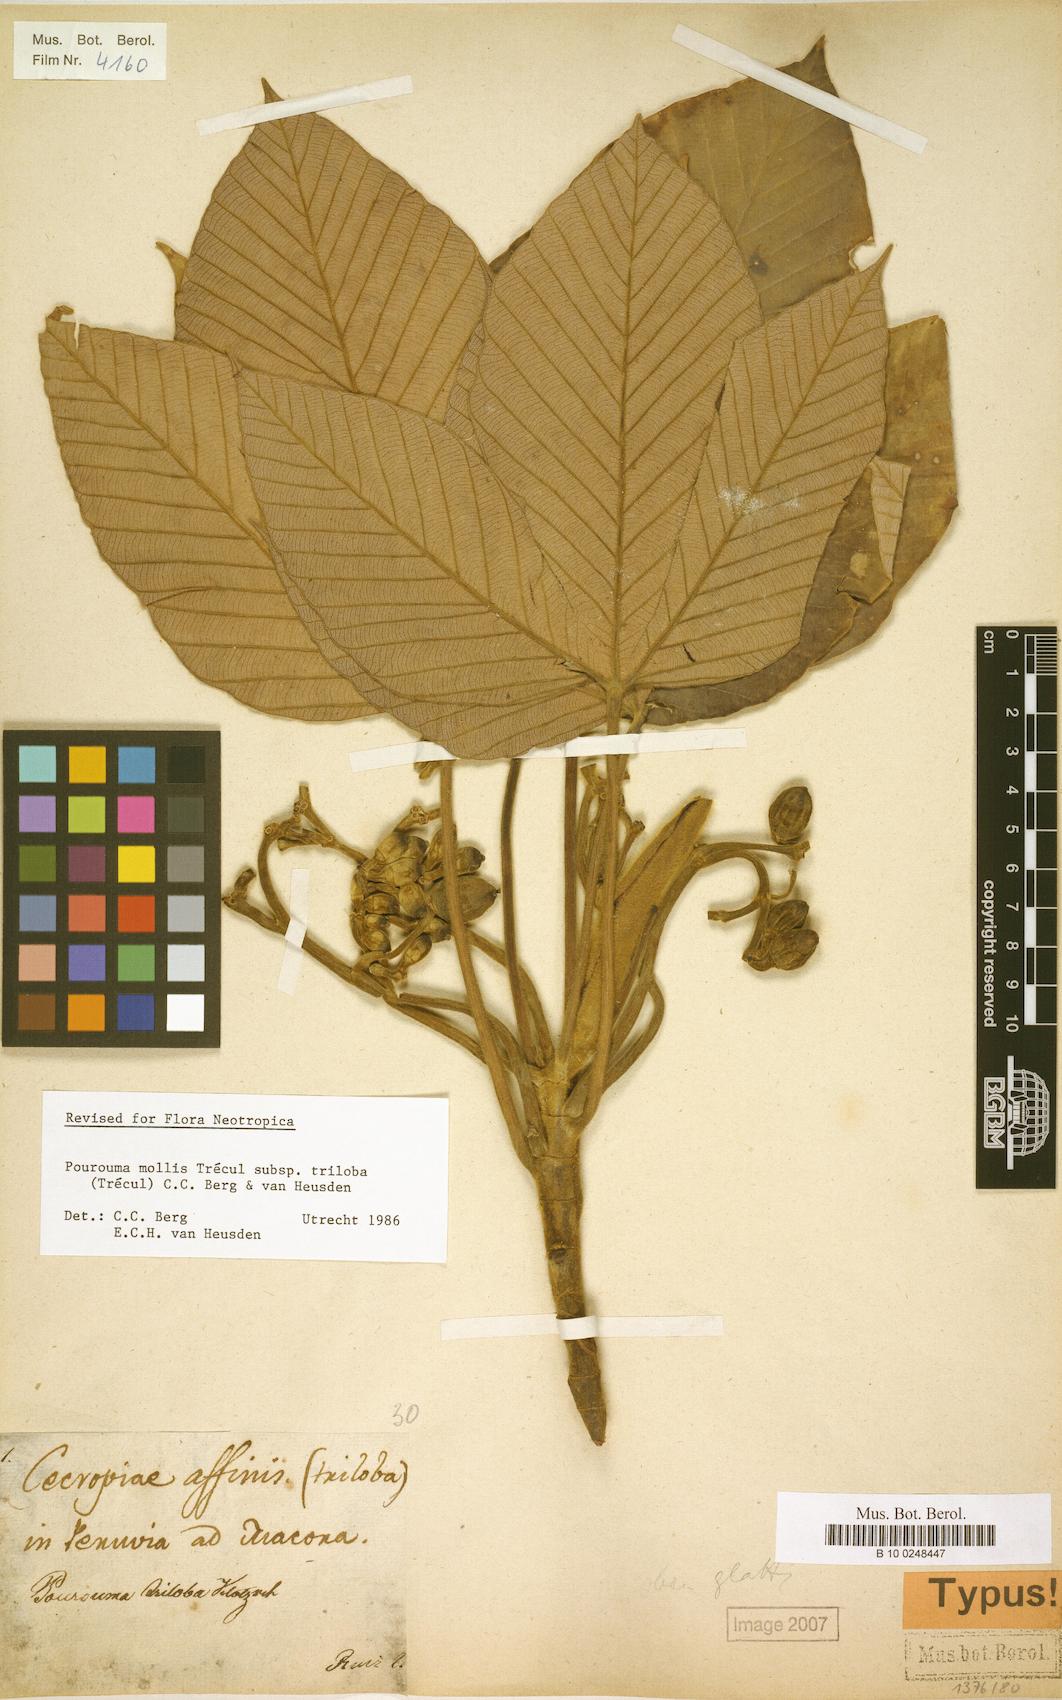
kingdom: Plantae
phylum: Tracheophyta
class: Magnoliopsida
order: Rosales
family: Urticaceae
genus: Pourouma
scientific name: Pourouma mollis
